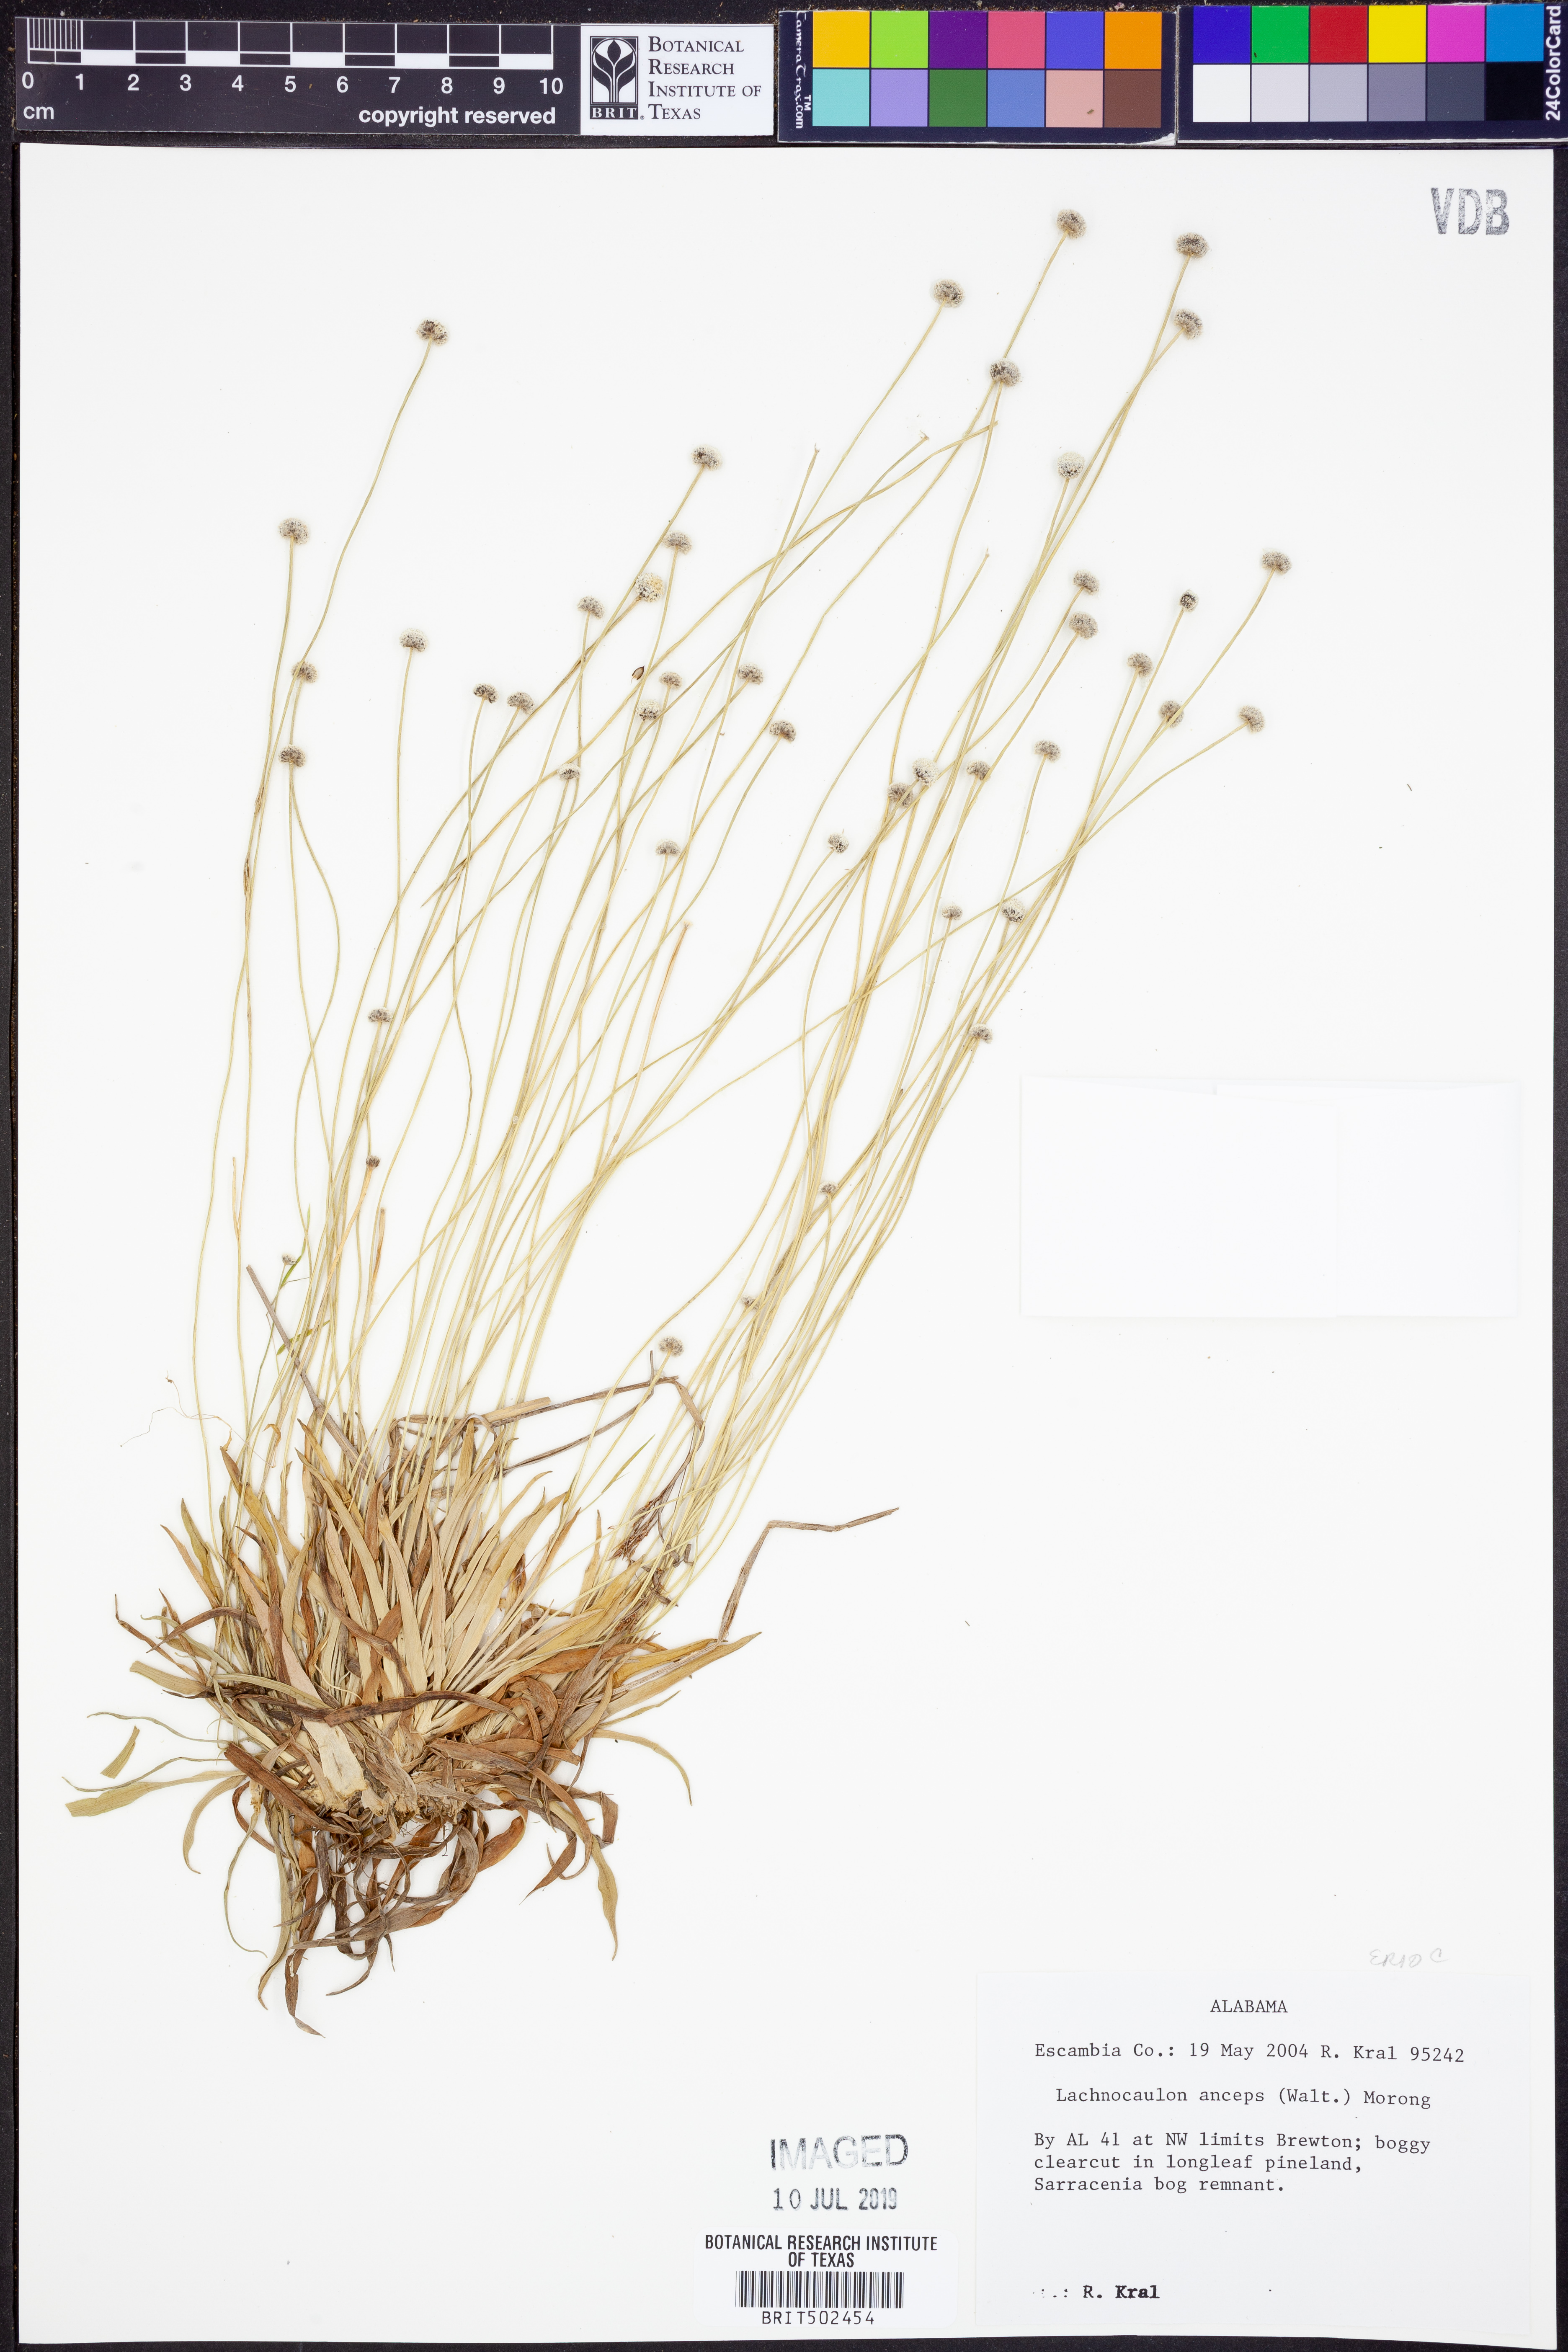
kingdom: Plantae
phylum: Tracheophyta
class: Liliopsida
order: Poales
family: Eriocaulaceae
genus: Paepalanthus
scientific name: Paepalanthus anceps
